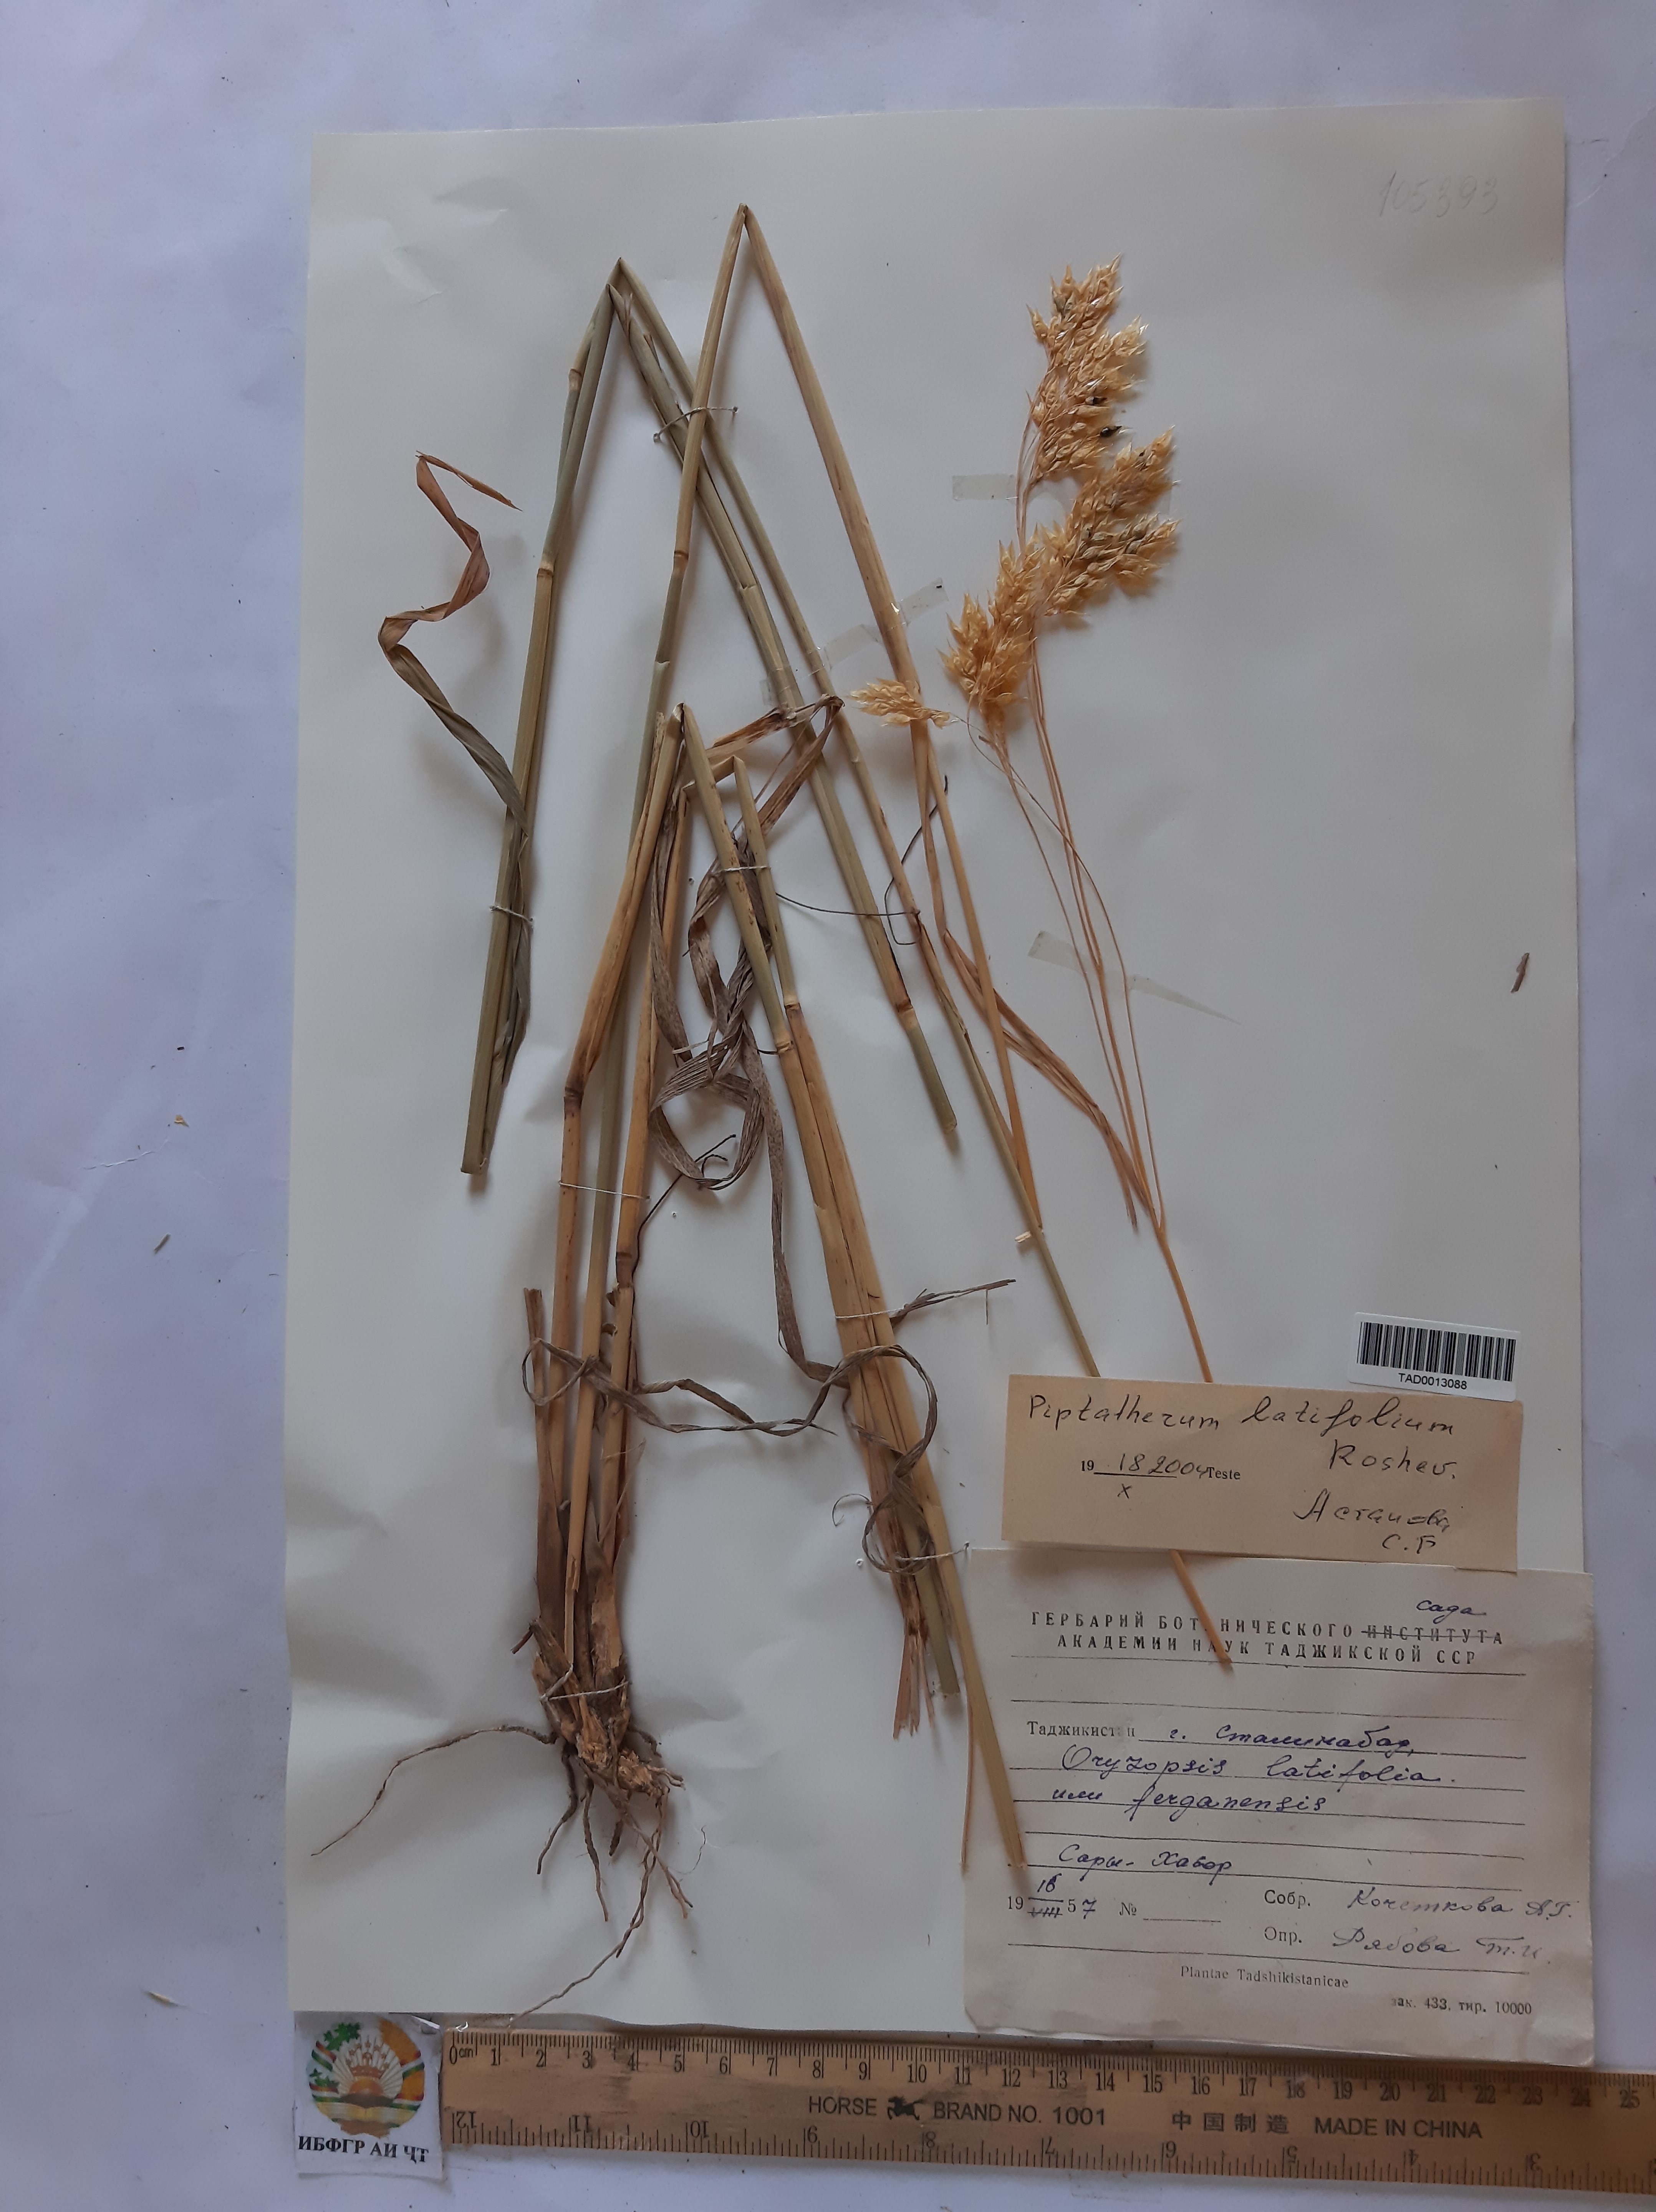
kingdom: Plantae
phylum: Tracheophyta
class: Liliopsida
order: Poales
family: Poaceae
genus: Piptatherum
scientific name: Piptatherum latifolium
